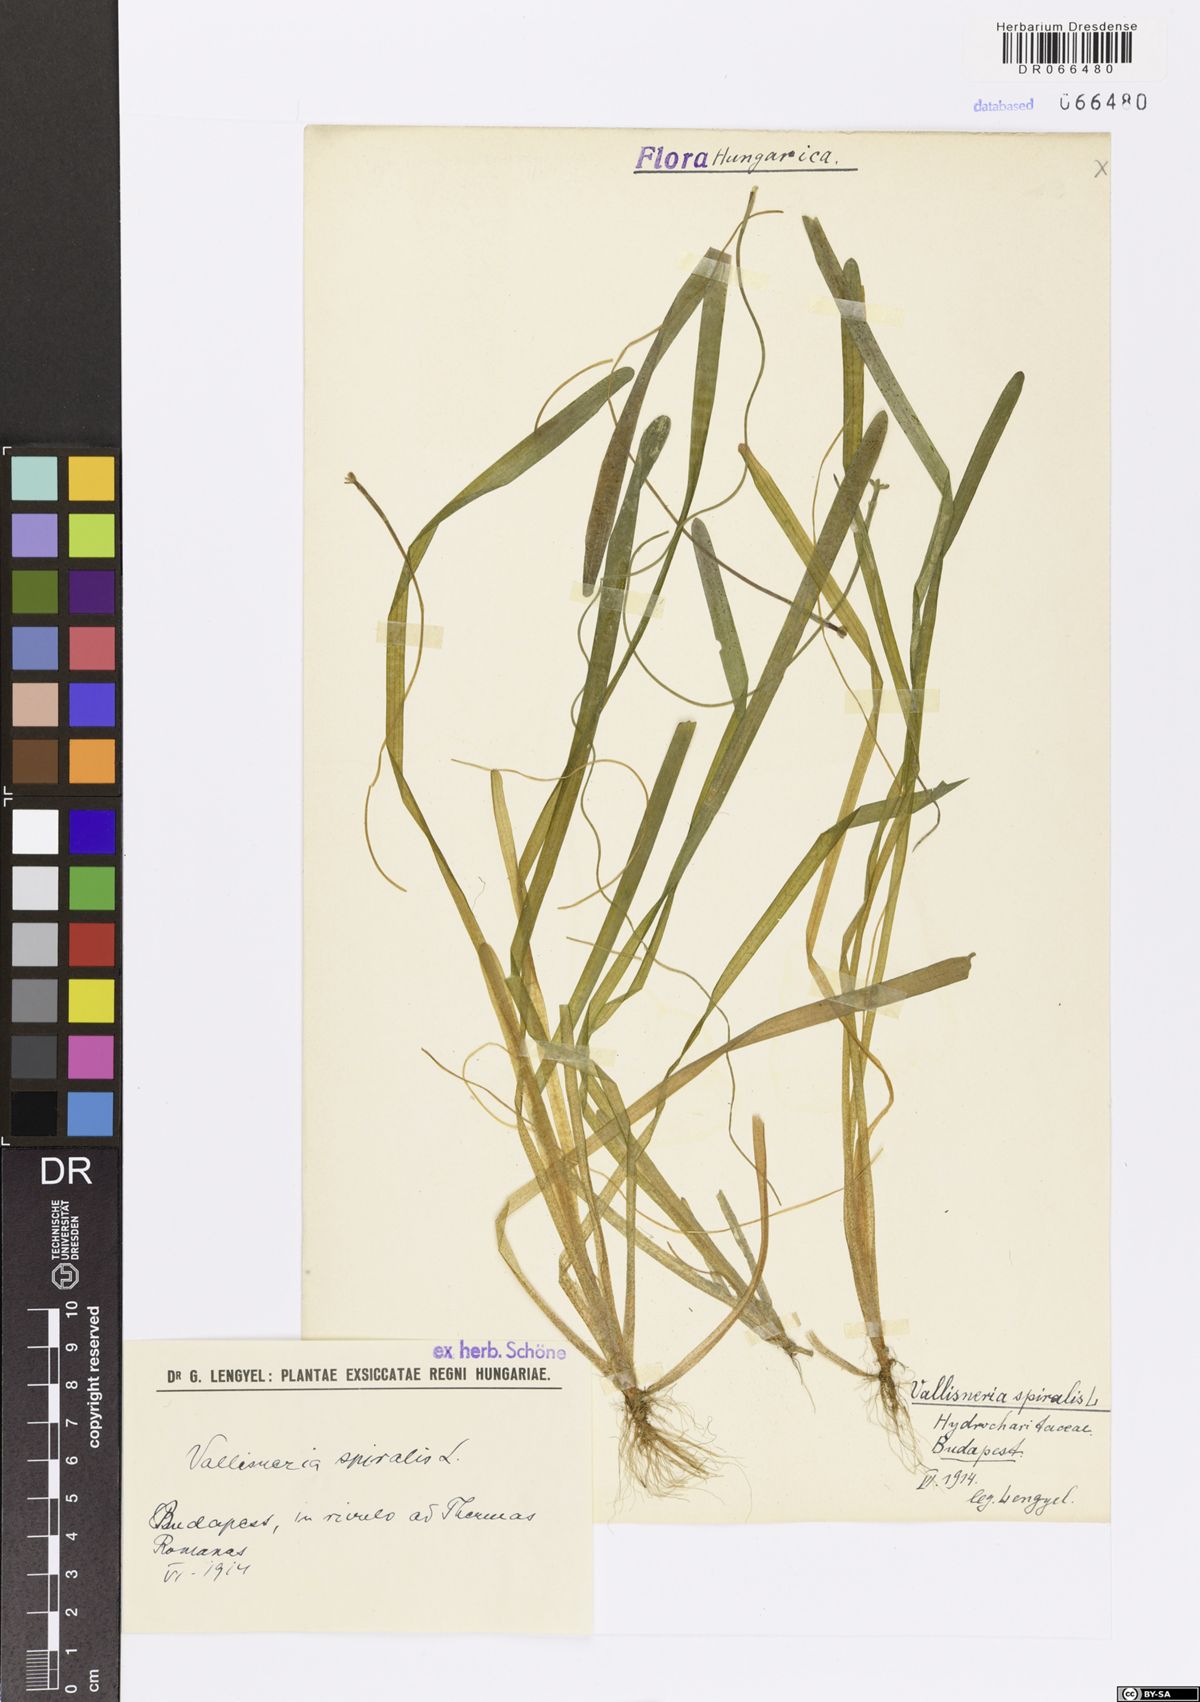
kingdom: Plantae
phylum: Tracheophyta
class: Liliopsida
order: Alismatales
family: Hydrocharitaceae
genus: Vallisneria
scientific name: Vallisneria spiralis
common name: Tapegrass
